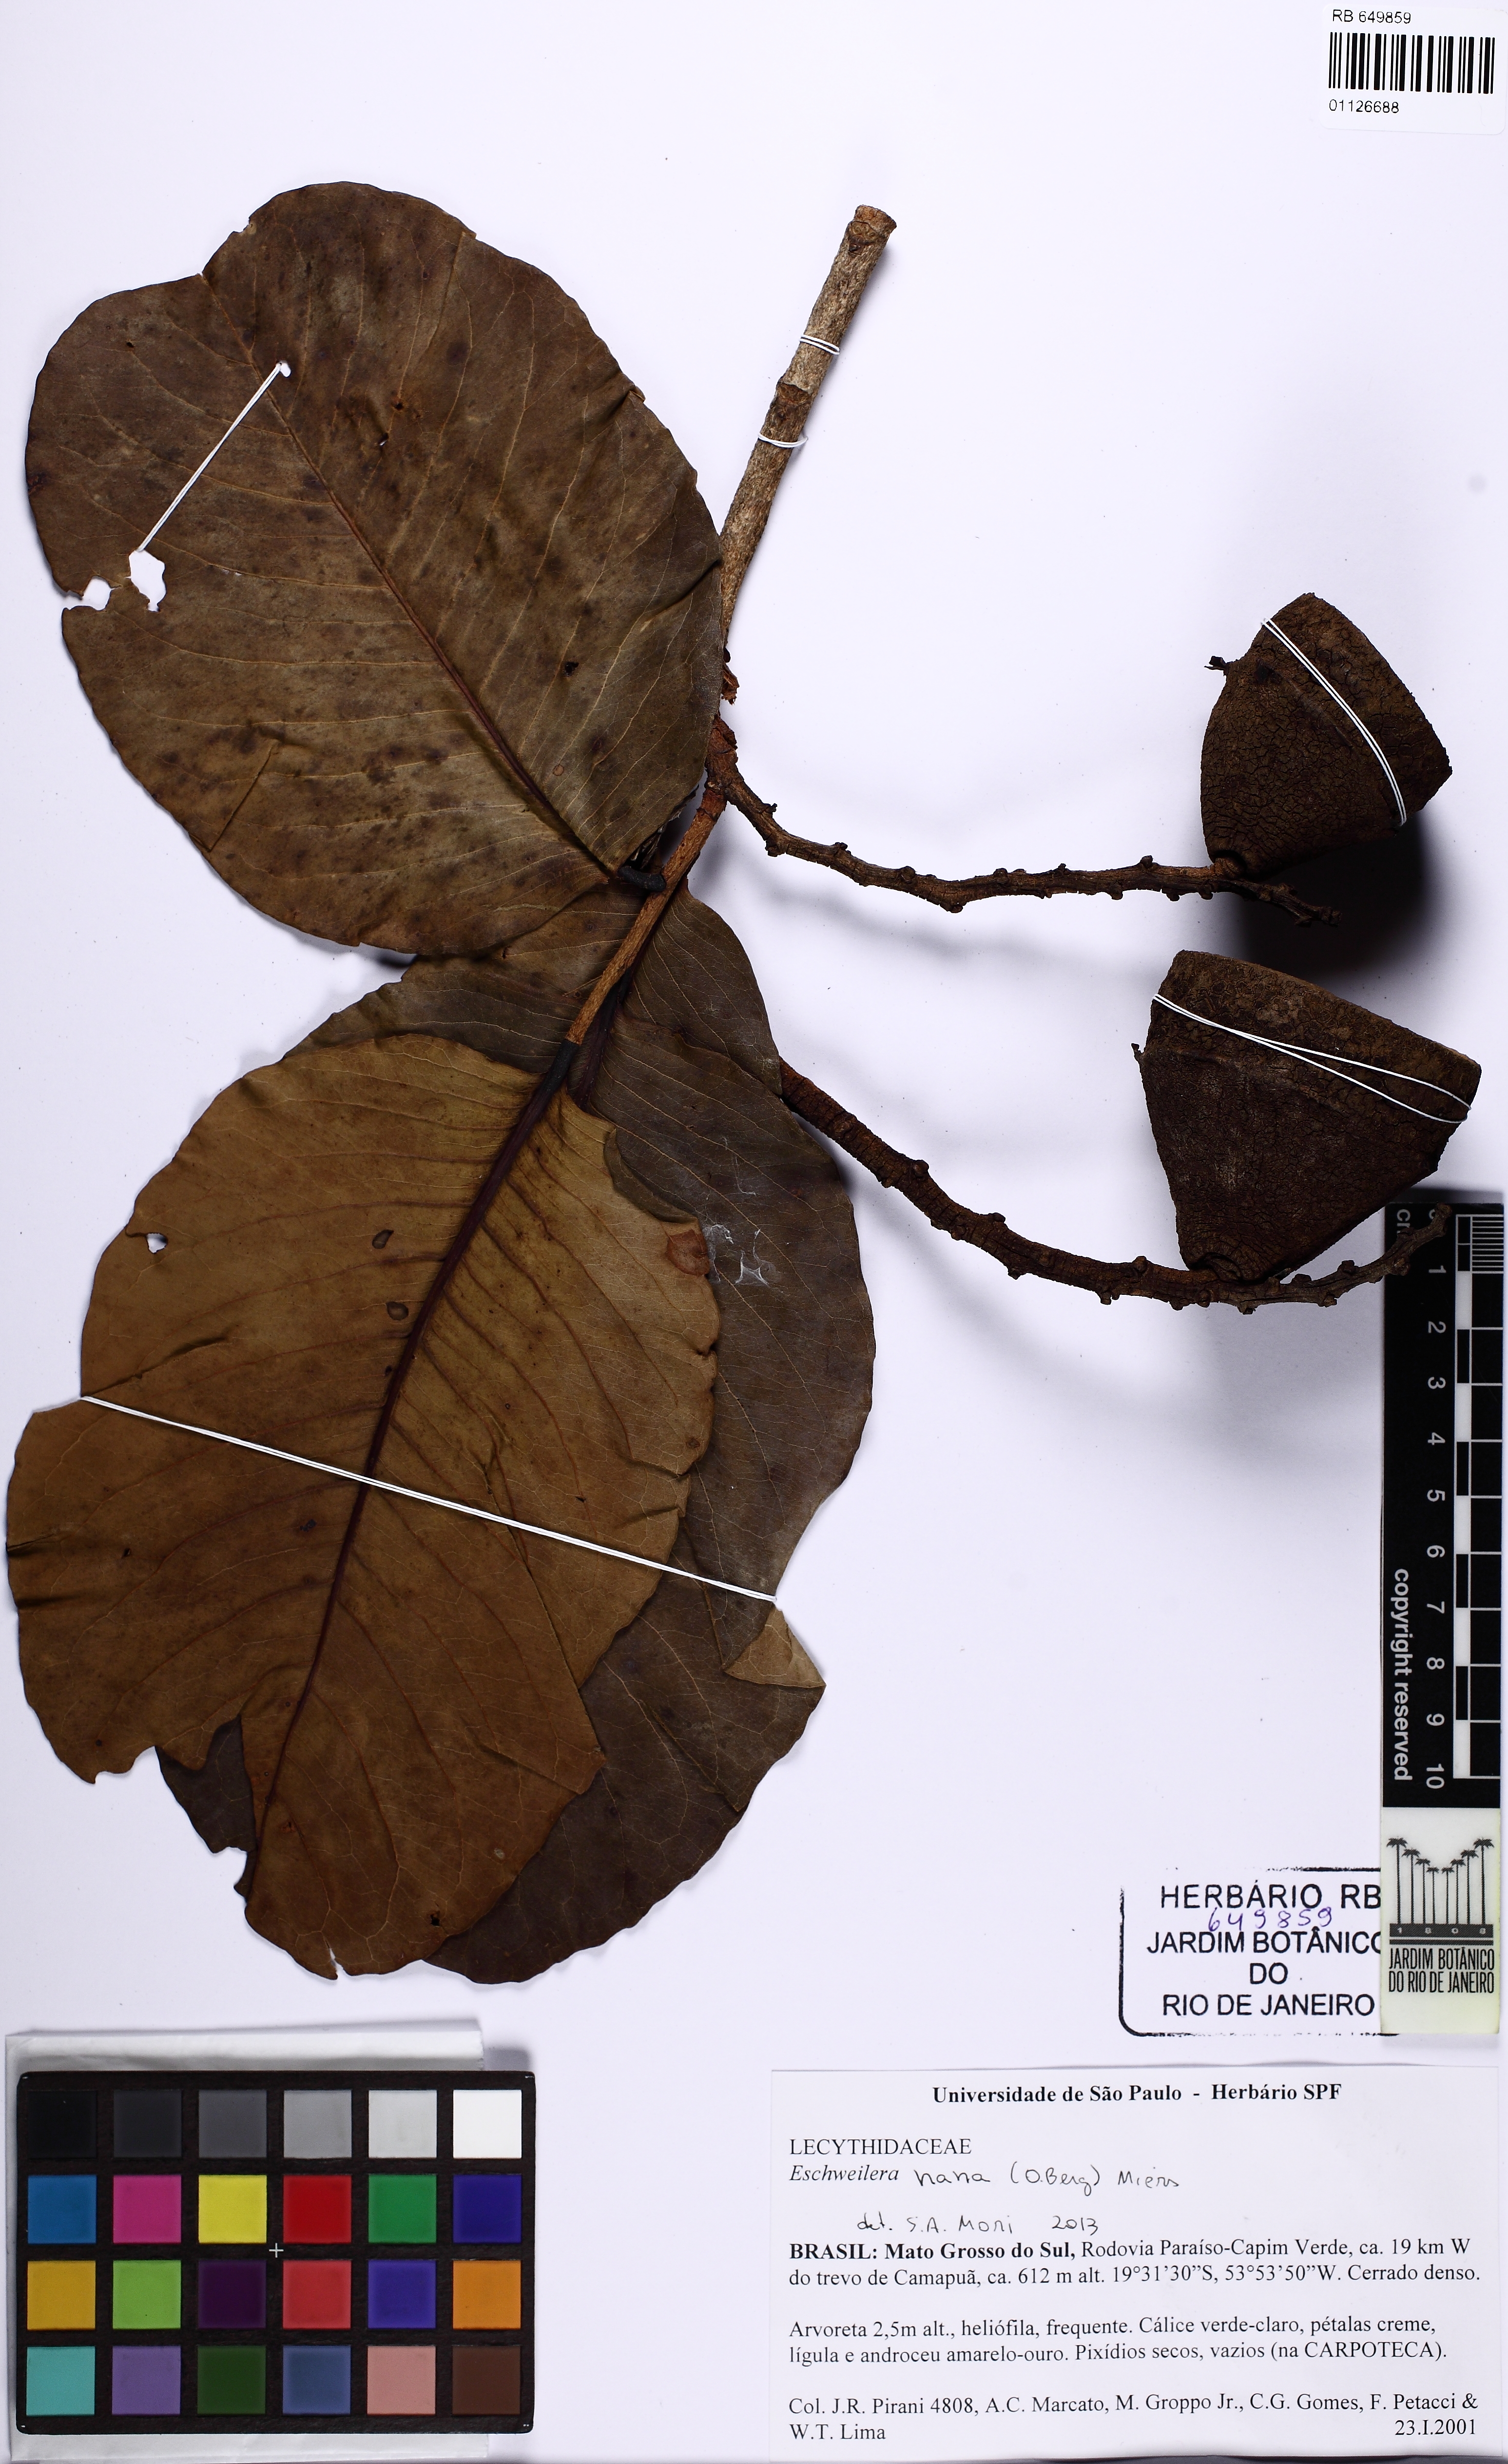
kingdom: Plantae
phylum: Tracheophyta
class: Magnoliopsida
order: Ericales
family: Lecythidaceae
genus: Eschweilera
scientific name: Eschweilera nana
